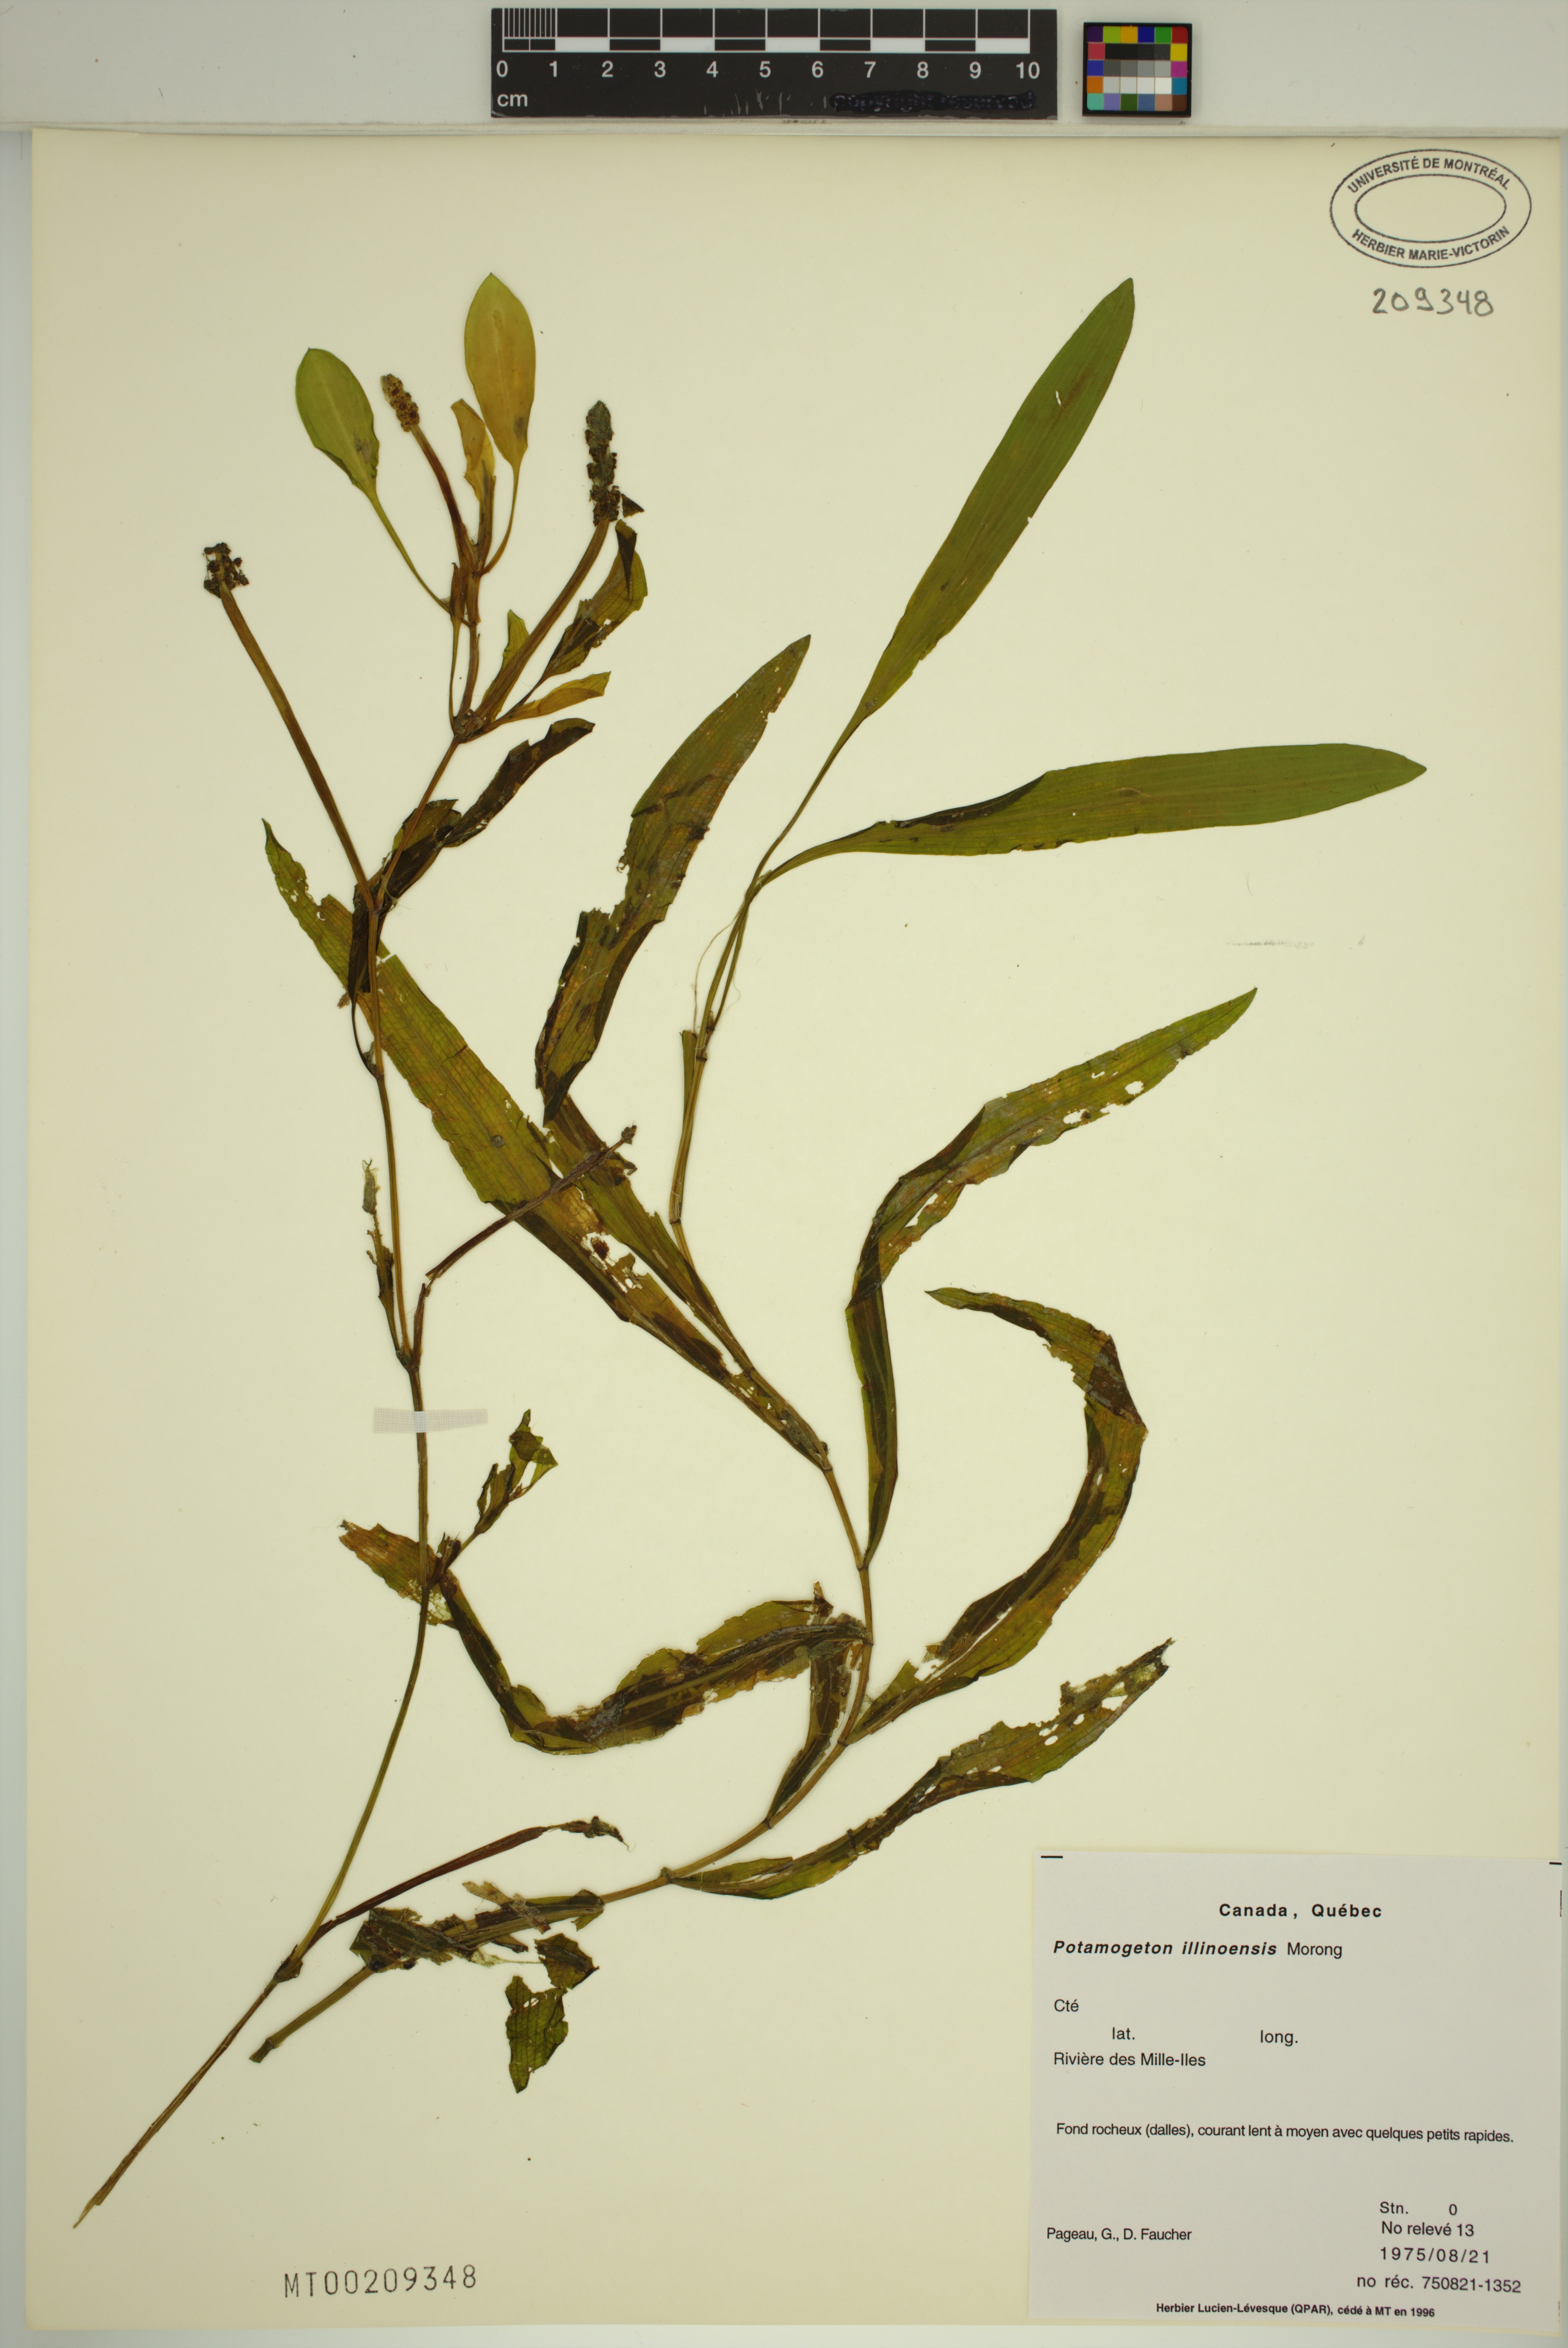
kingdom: Plantae
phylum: Tracheophyta
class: Liliopsida
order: Alismatales
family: Potamogetonaceae
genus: Potamogeton
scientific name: Potamogeton illinoensis
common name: Illinois pondweed
